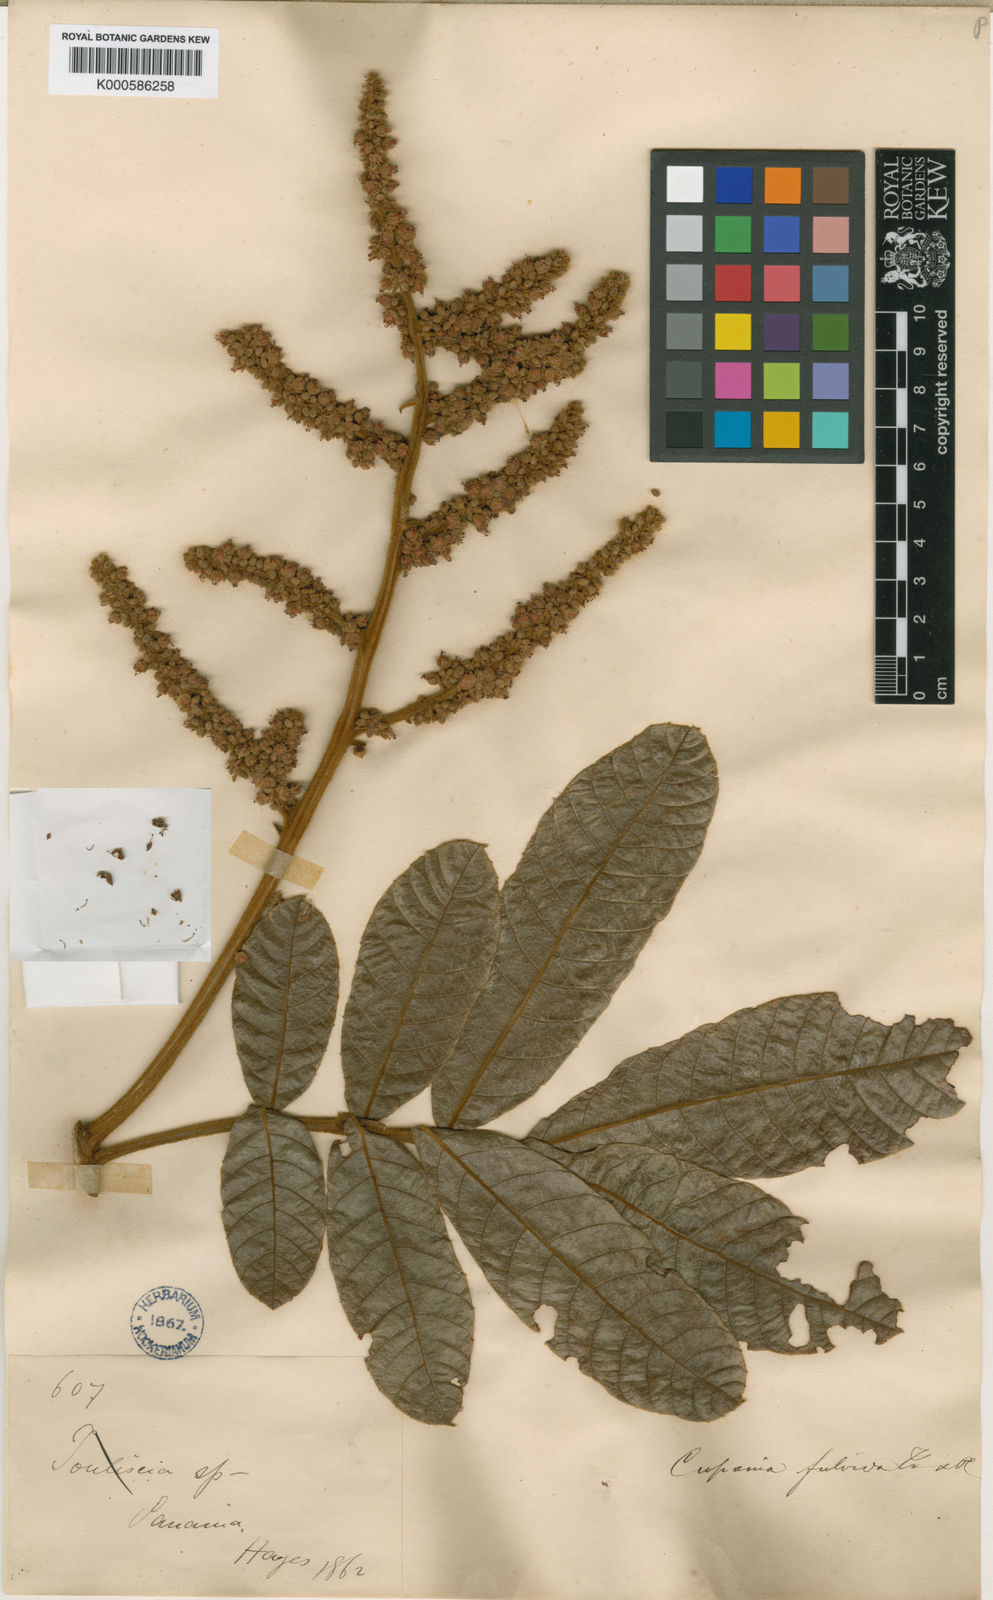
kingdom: Plantae
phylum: Tracheophyta
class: Magnoliopsida
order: Sapindales
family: Sapindaceae
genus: Cupania
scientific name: Cupania rufescens
